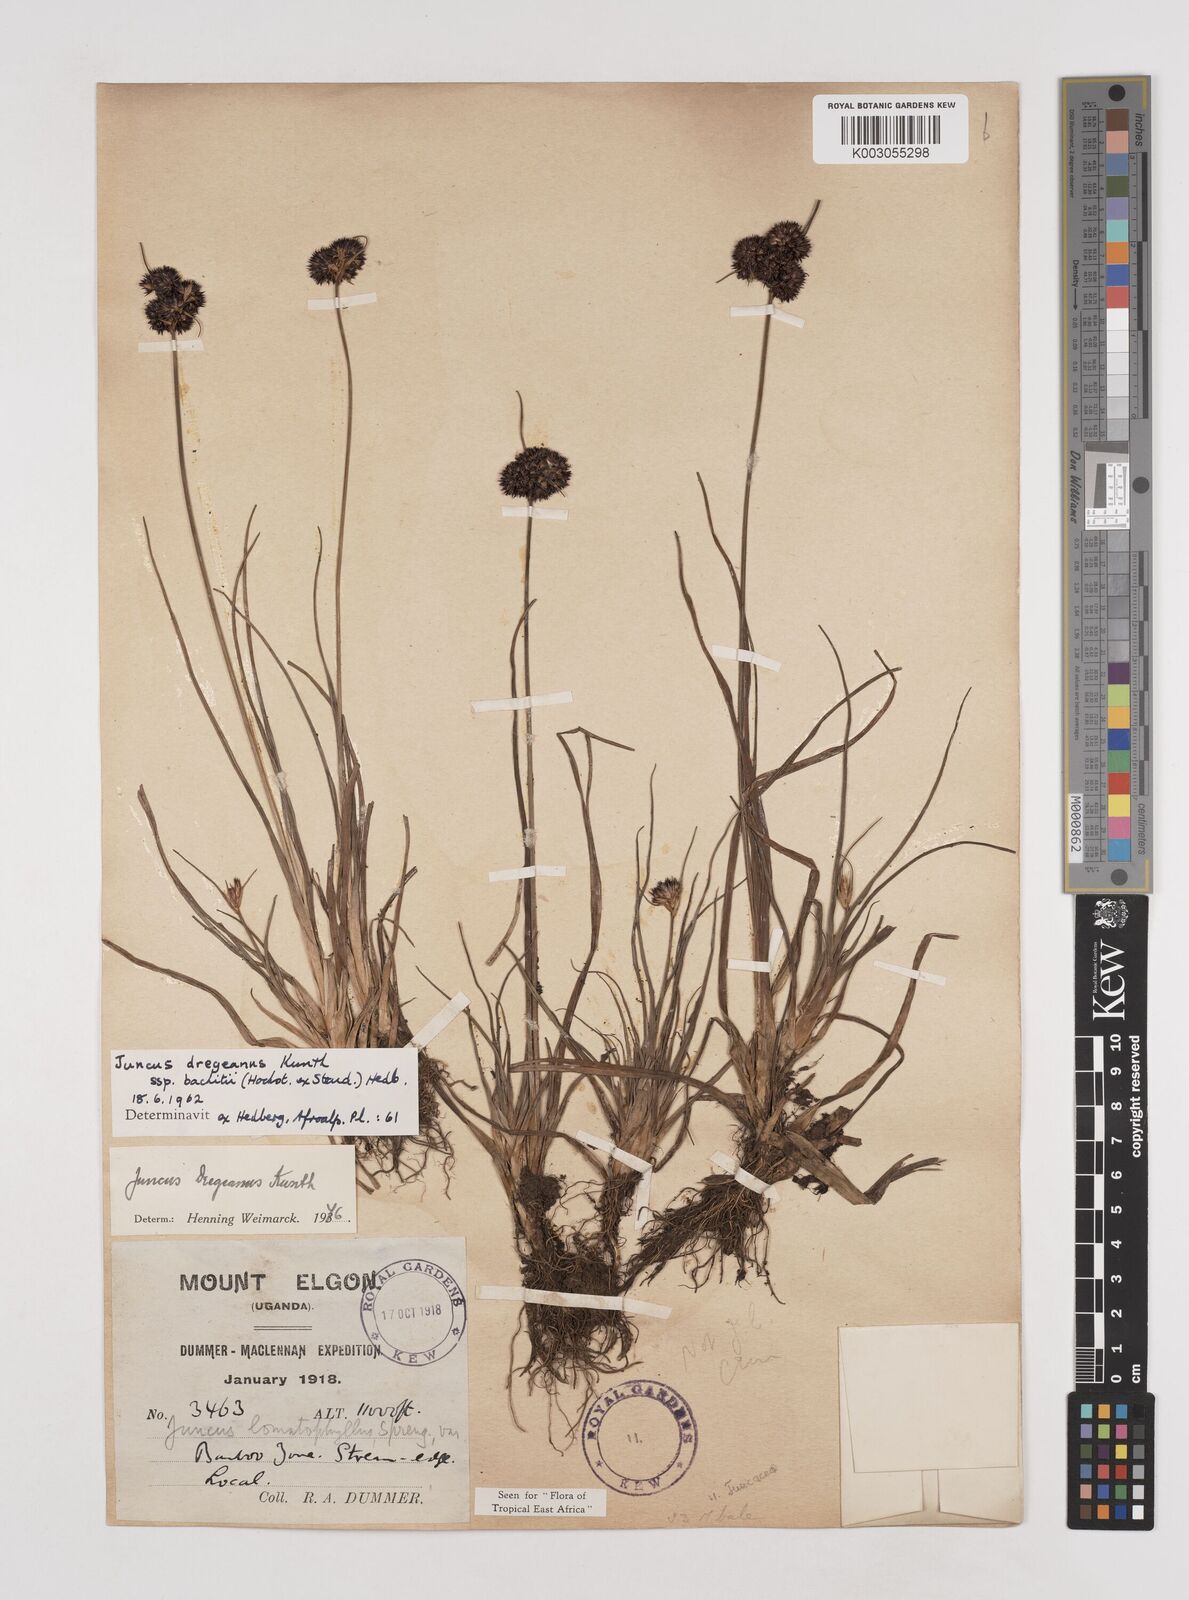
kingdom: Plantae
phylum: Tracheophyta
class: Liliopsida
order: Poales
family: Juncaceae
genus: Juncus
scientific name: Juncus dregeanus
